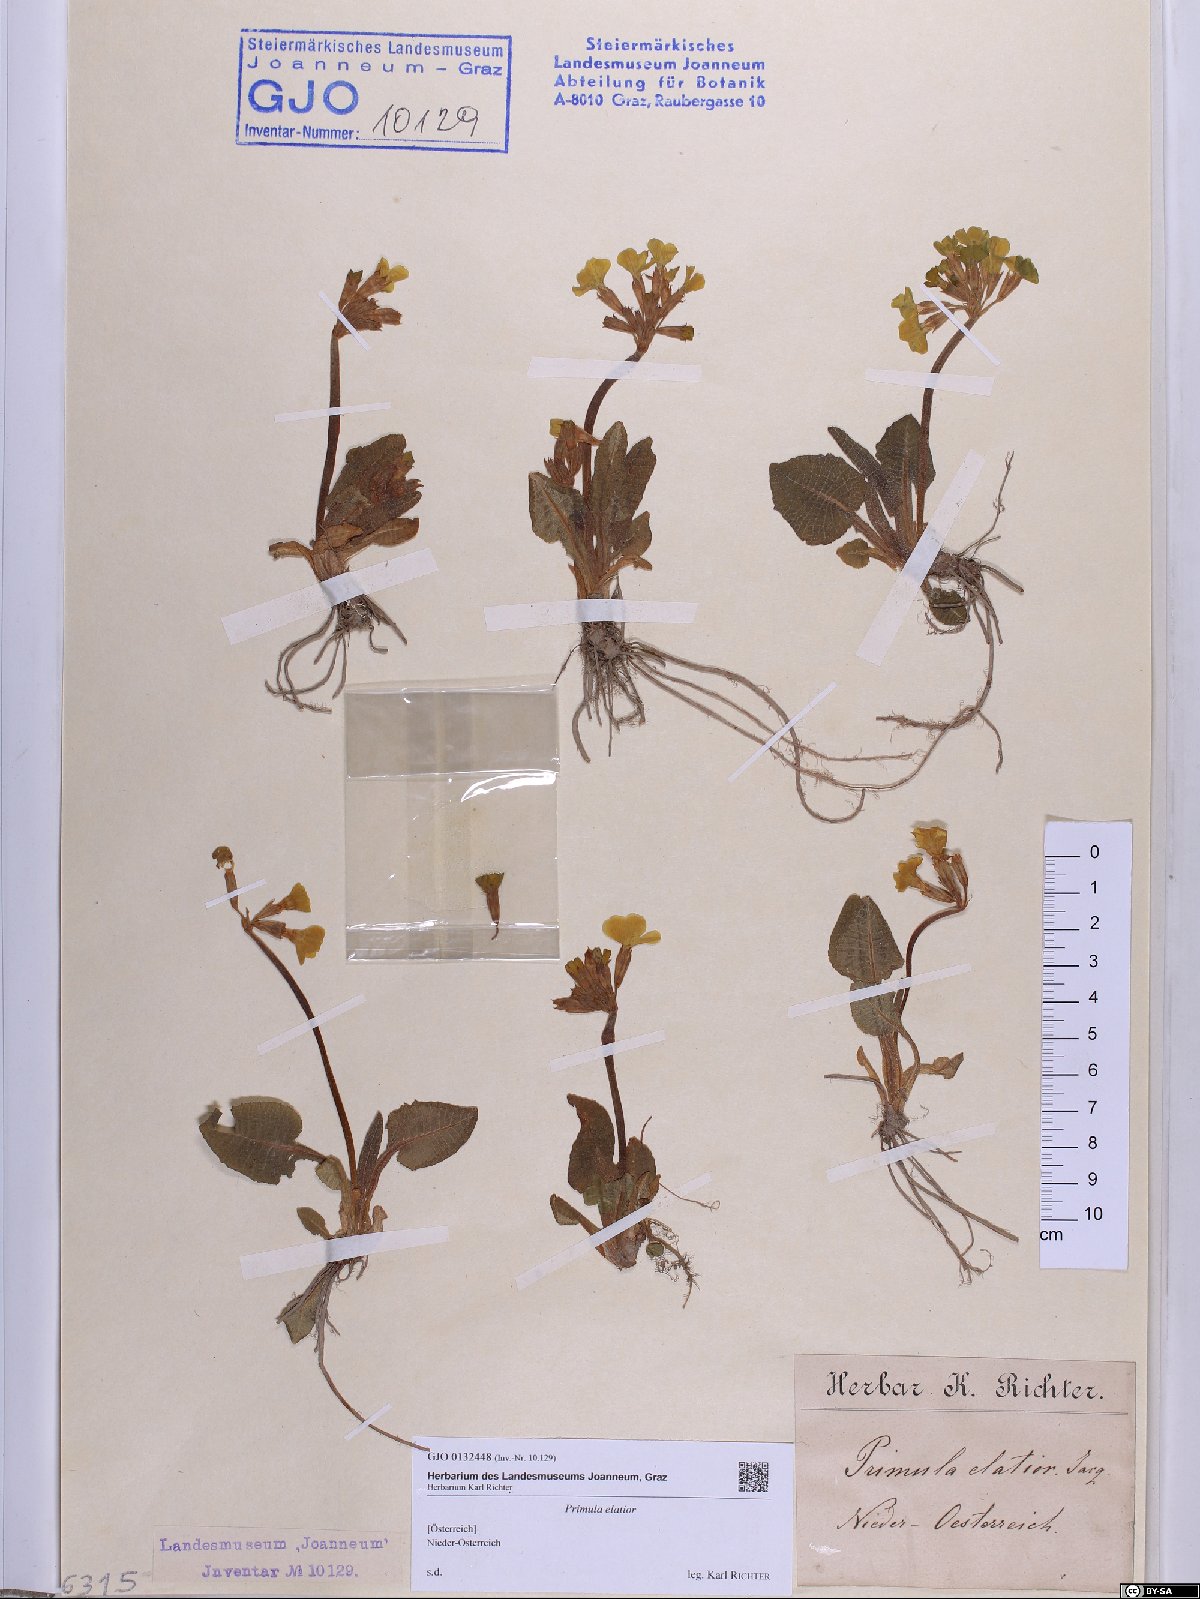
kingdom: Plantae
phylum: Tracheophyta
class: Magnoliopsida
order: Ericales
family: Primulaceae
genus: Primula
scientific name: Primula elatior
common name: Oxlip
